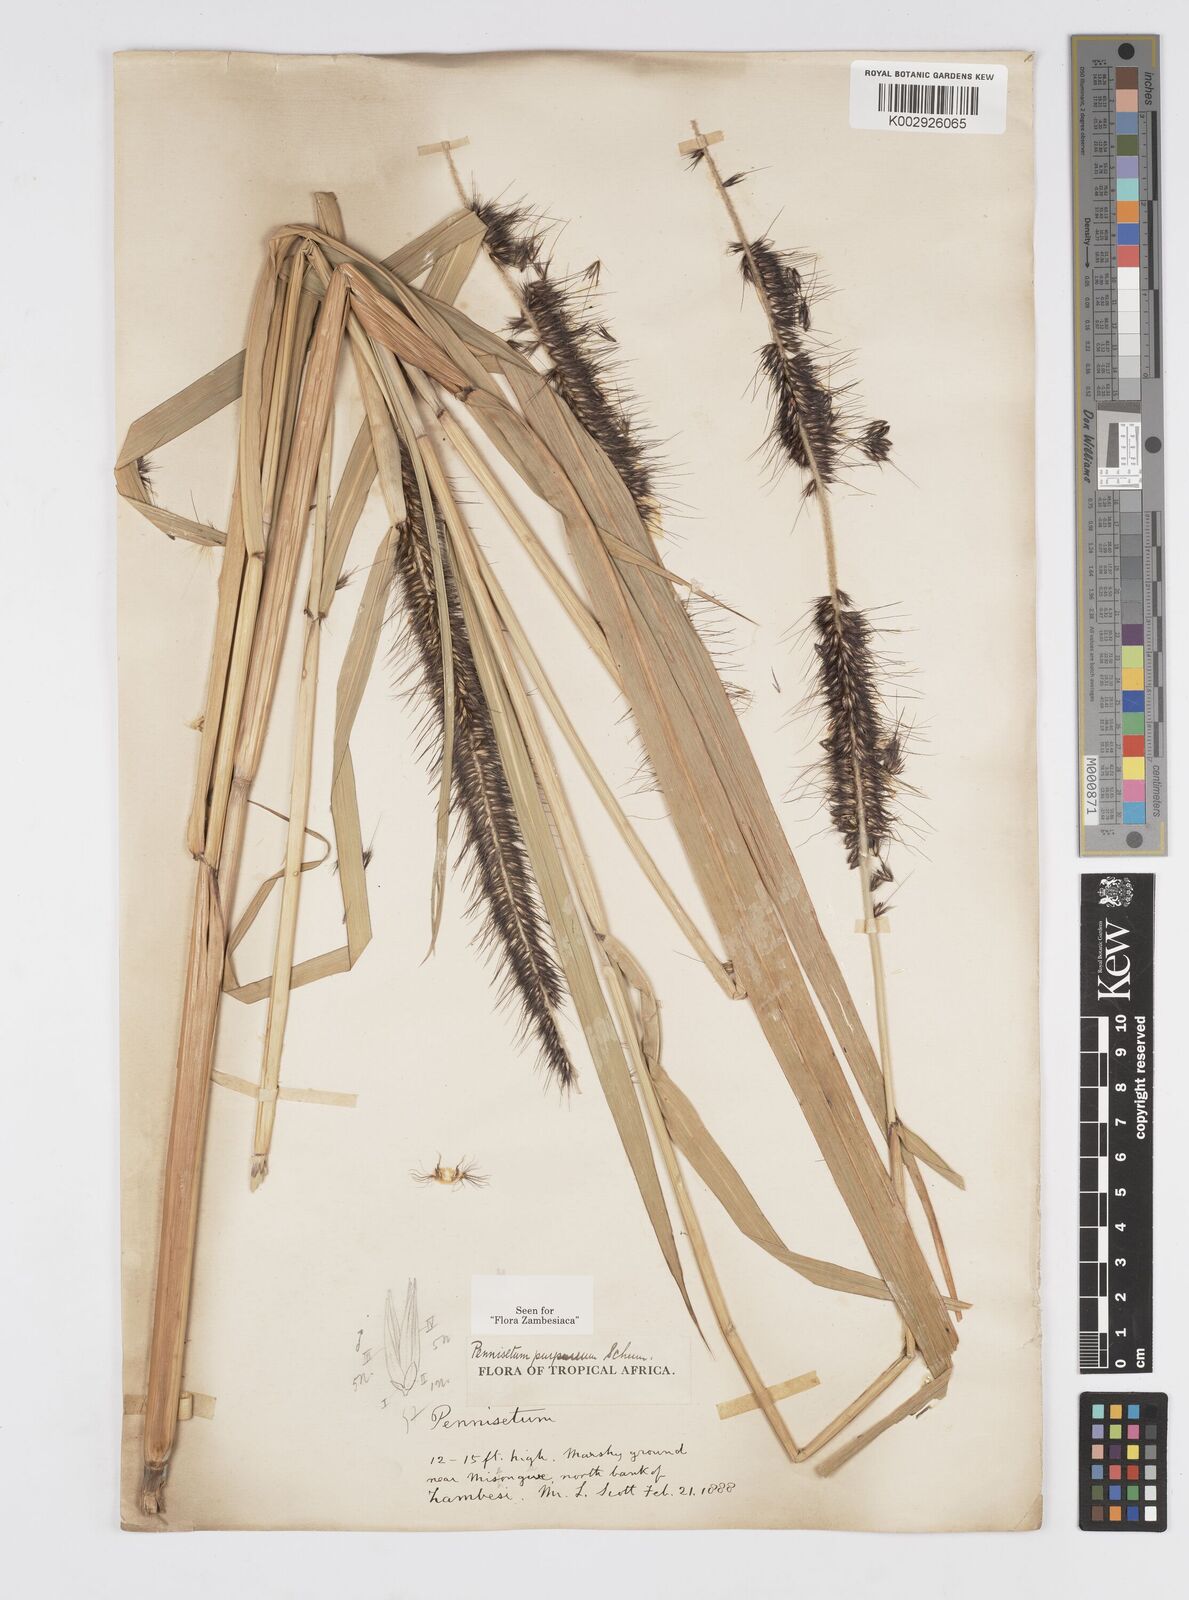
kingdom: Plantae
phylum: Tracheophyta
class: Liliopsida
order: Poales
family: Poaceae
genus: Cenchrus
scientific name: Cenchrus purpureus
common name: Elephant grass
